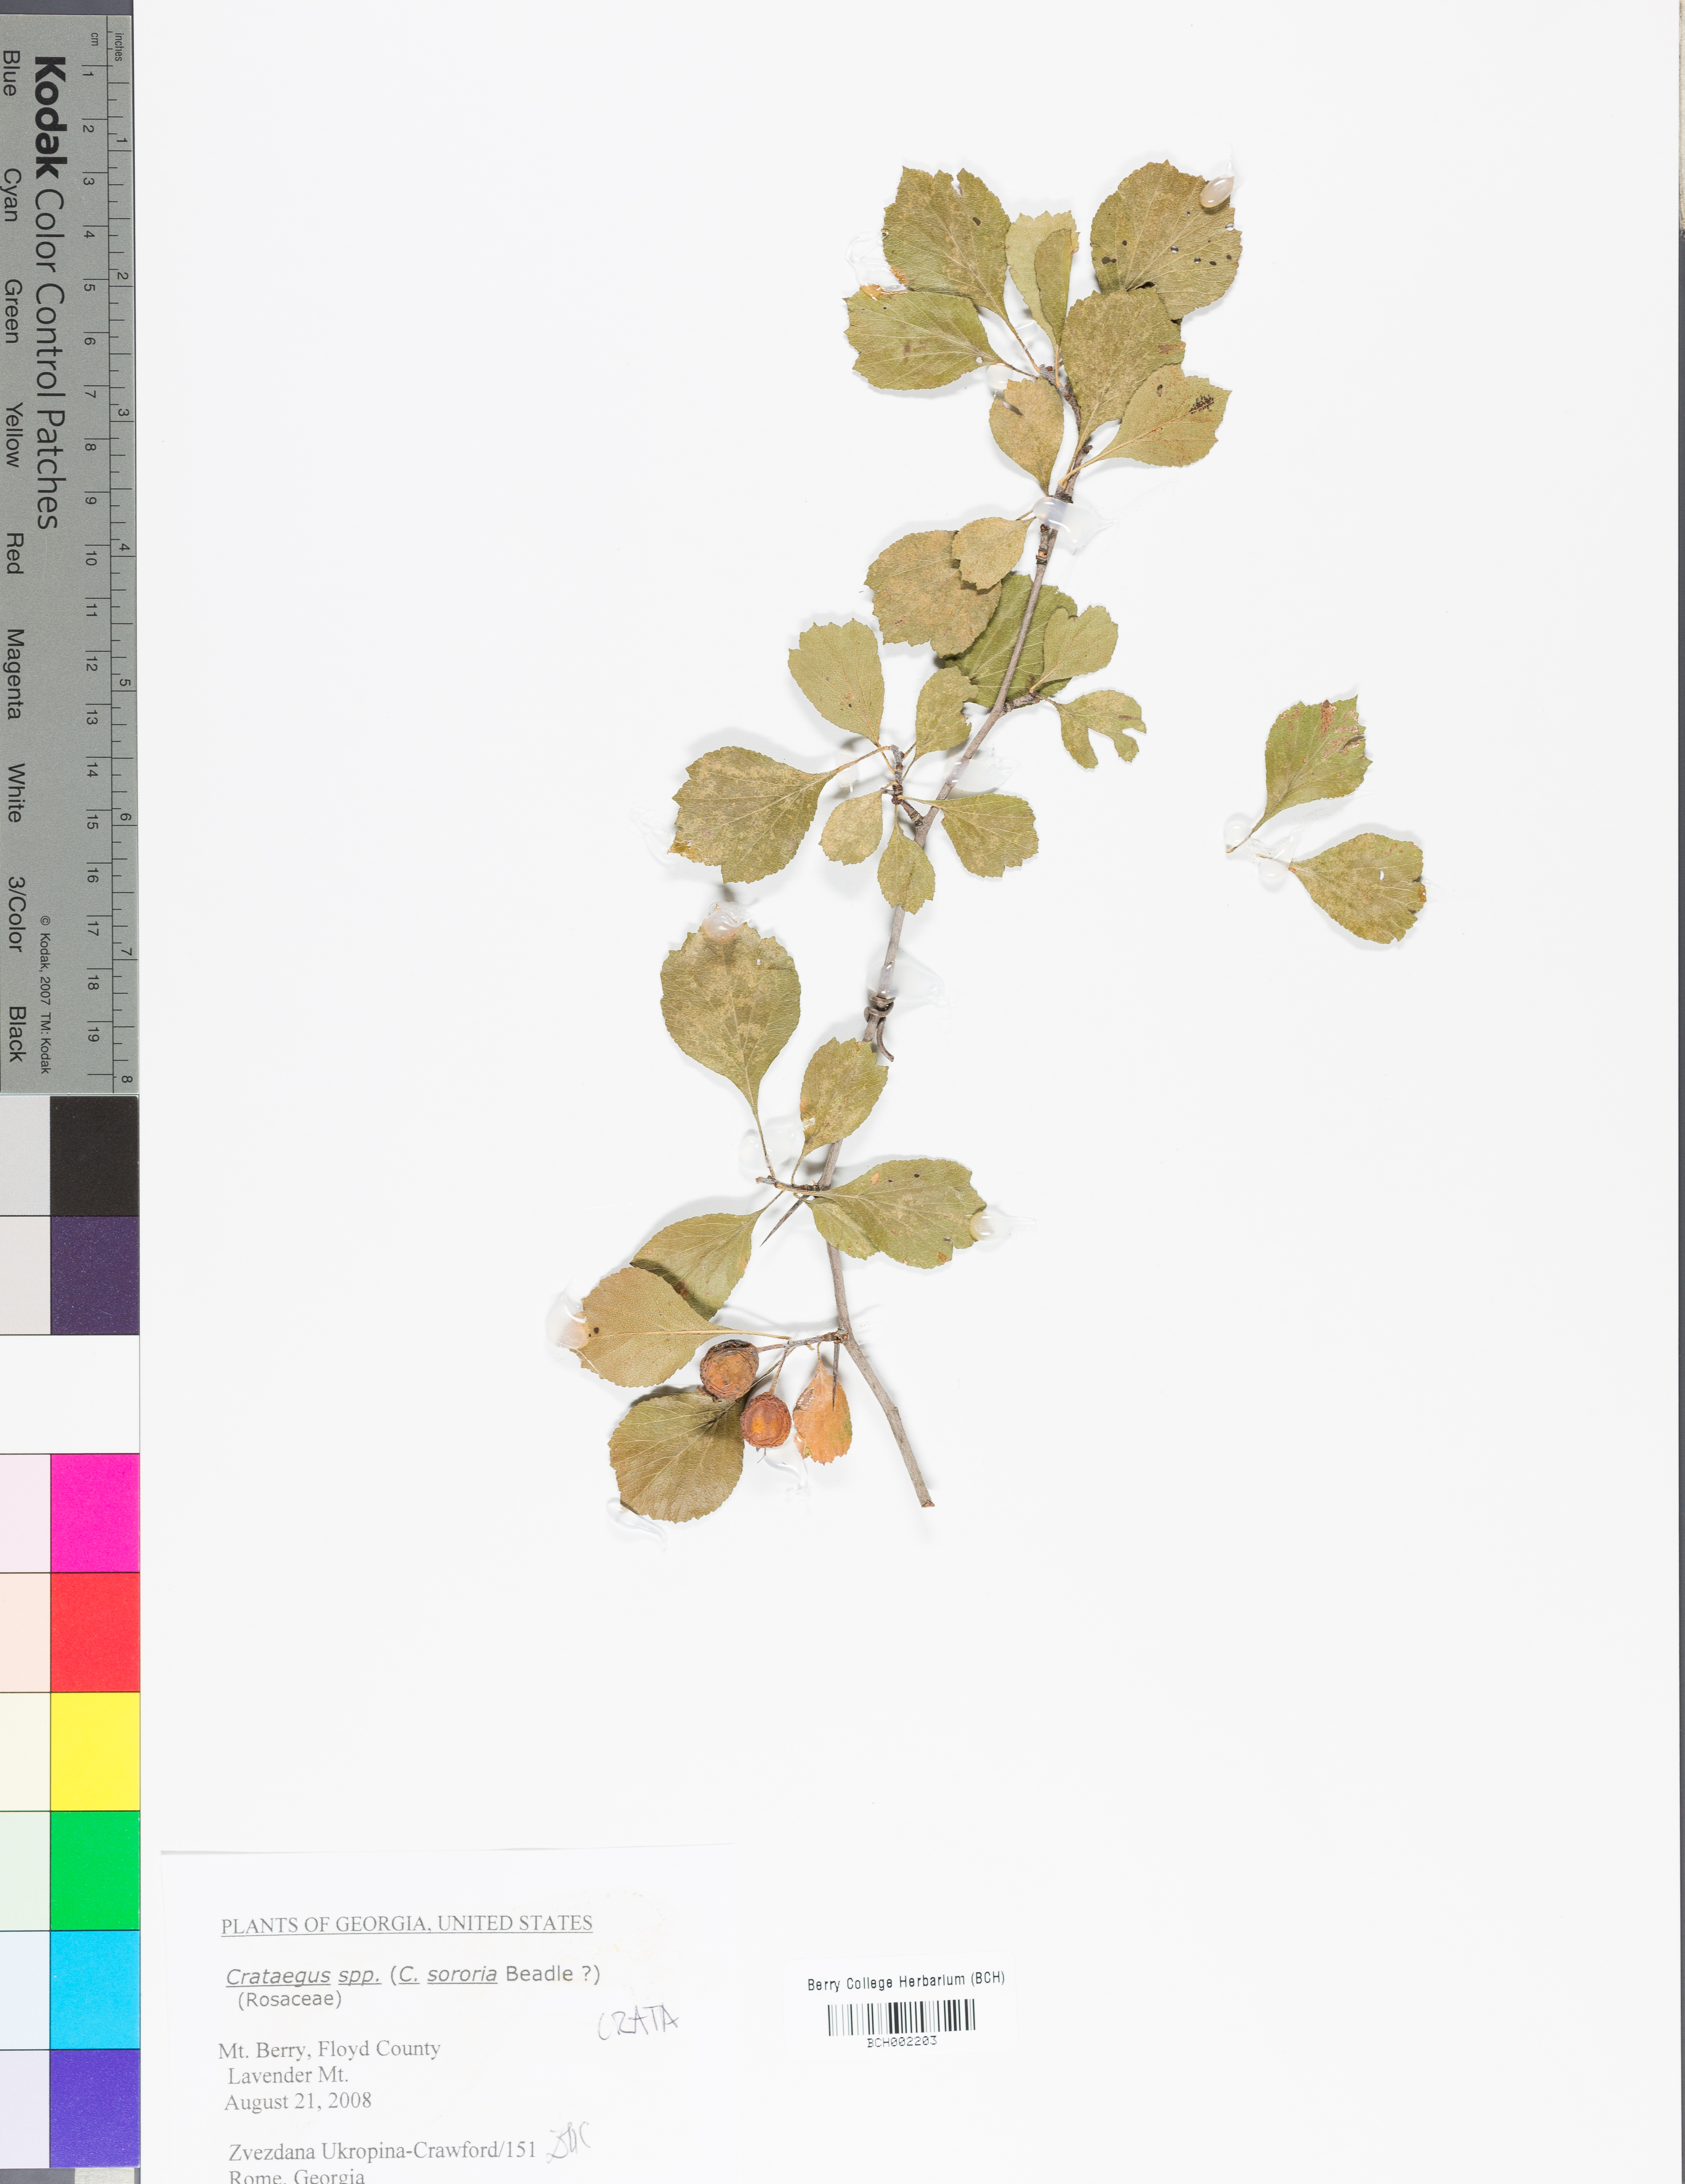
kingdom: Plantae
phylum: Tracheophyta
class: Magnoliopsida
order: Rosales
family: Rosaceae
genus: Crataegus
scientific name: Crataegus
